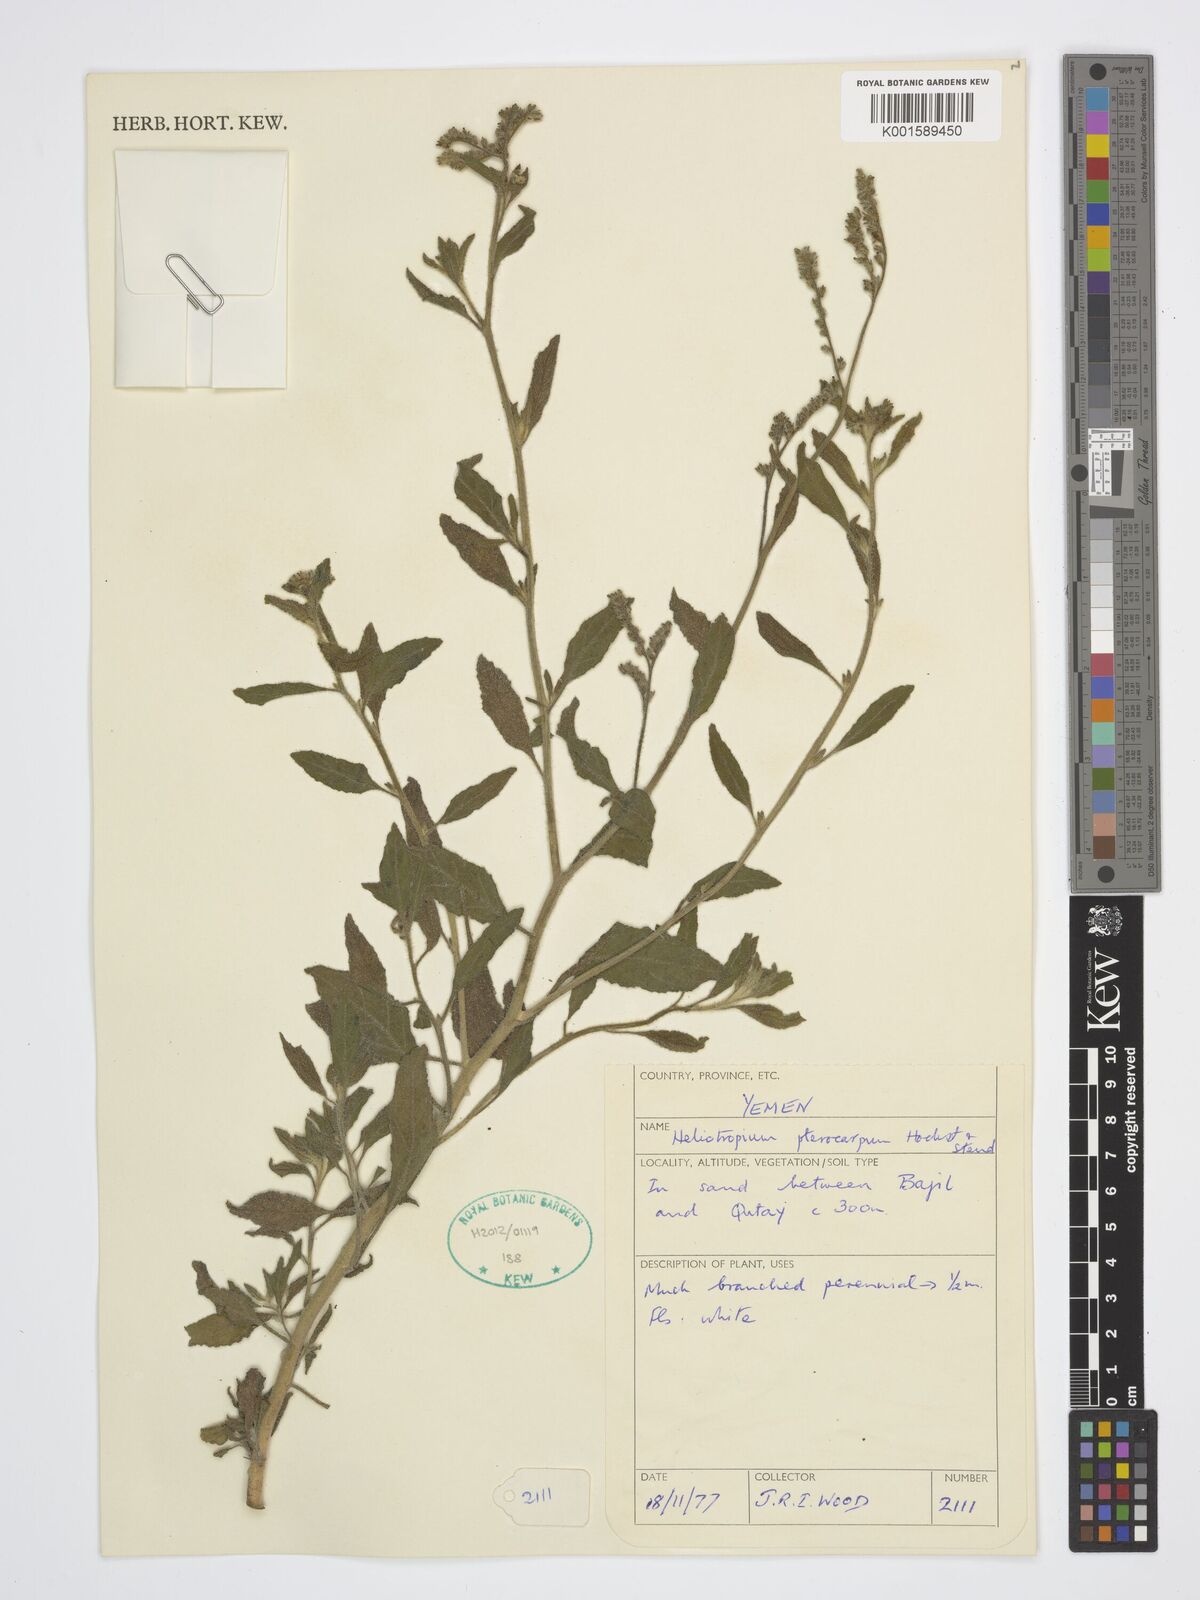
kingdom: Plantae
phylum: Tracheophyta
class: Magnoliopsida
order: Boraginales
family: Heliotropiaceae
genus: Heliotropium
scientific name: Heliotropium pterocarpum
